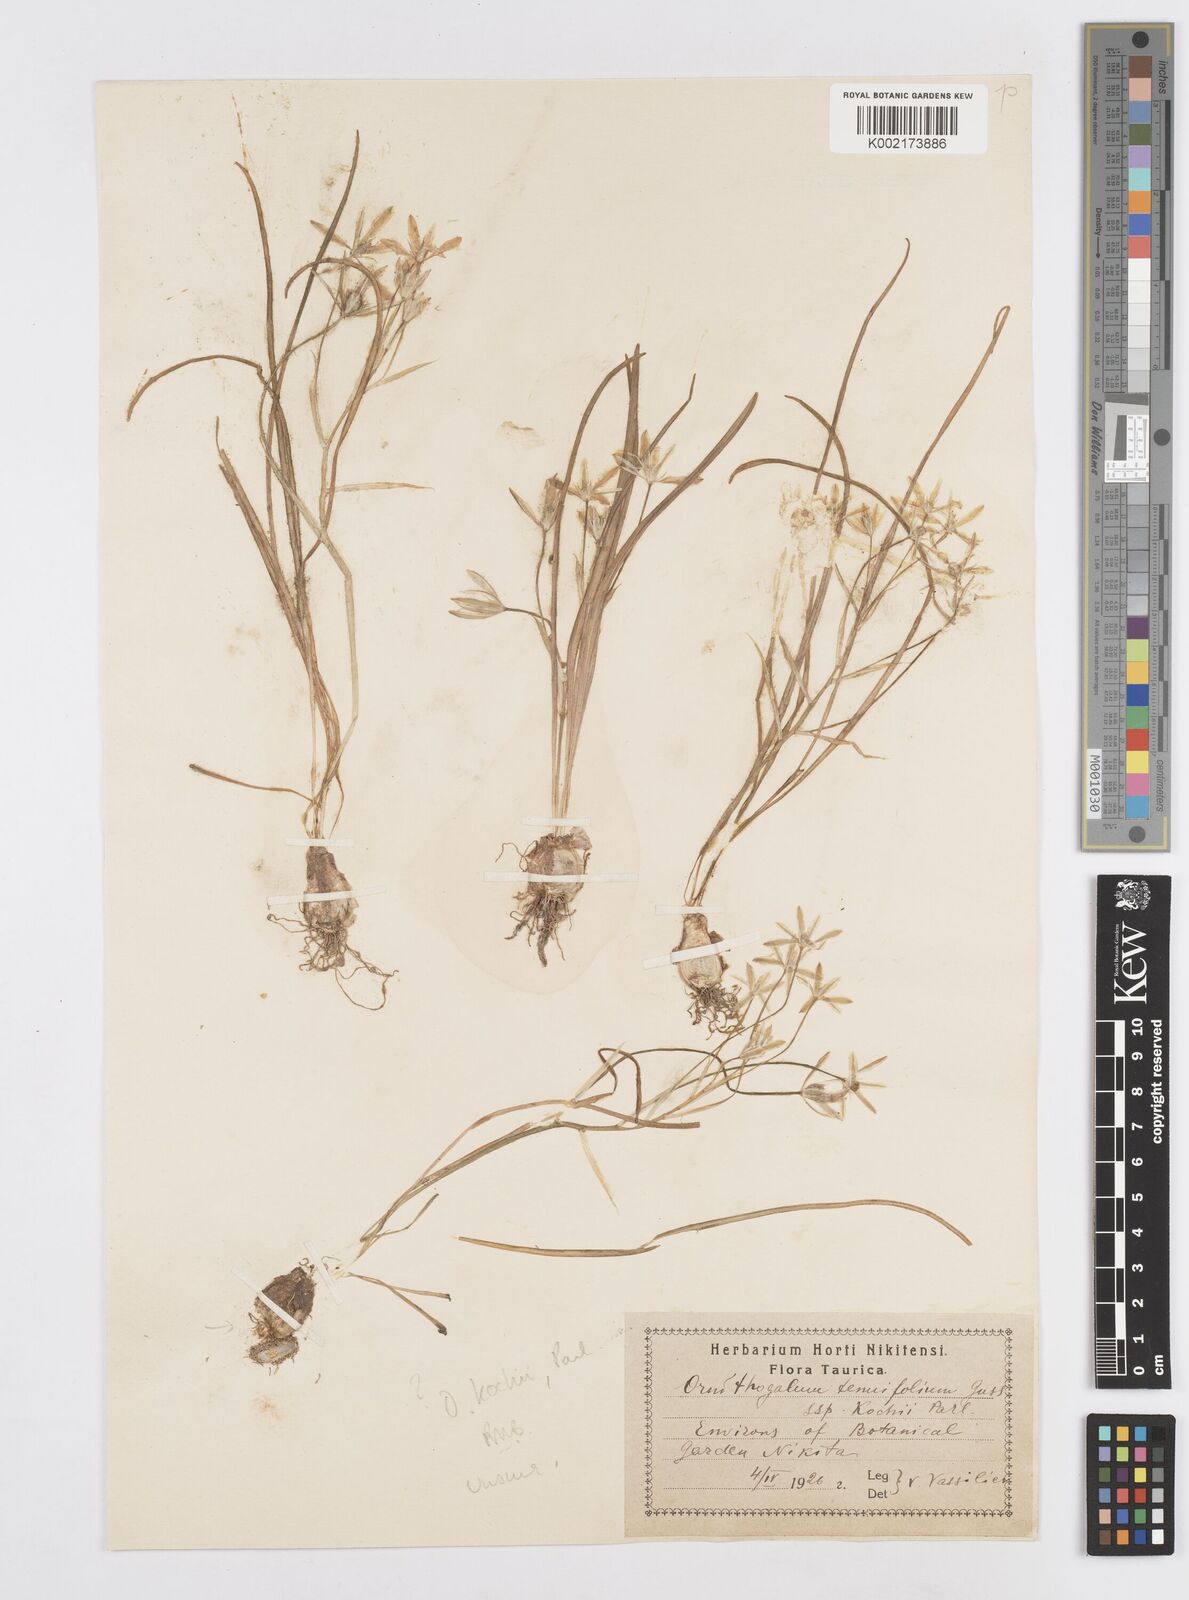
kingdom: Plantae
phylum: Tracheophyta
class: Liliopsida
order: Asparagales
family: Asparagaceae
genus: Ornithogalum
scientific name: Ornithogalum orthophyllum
